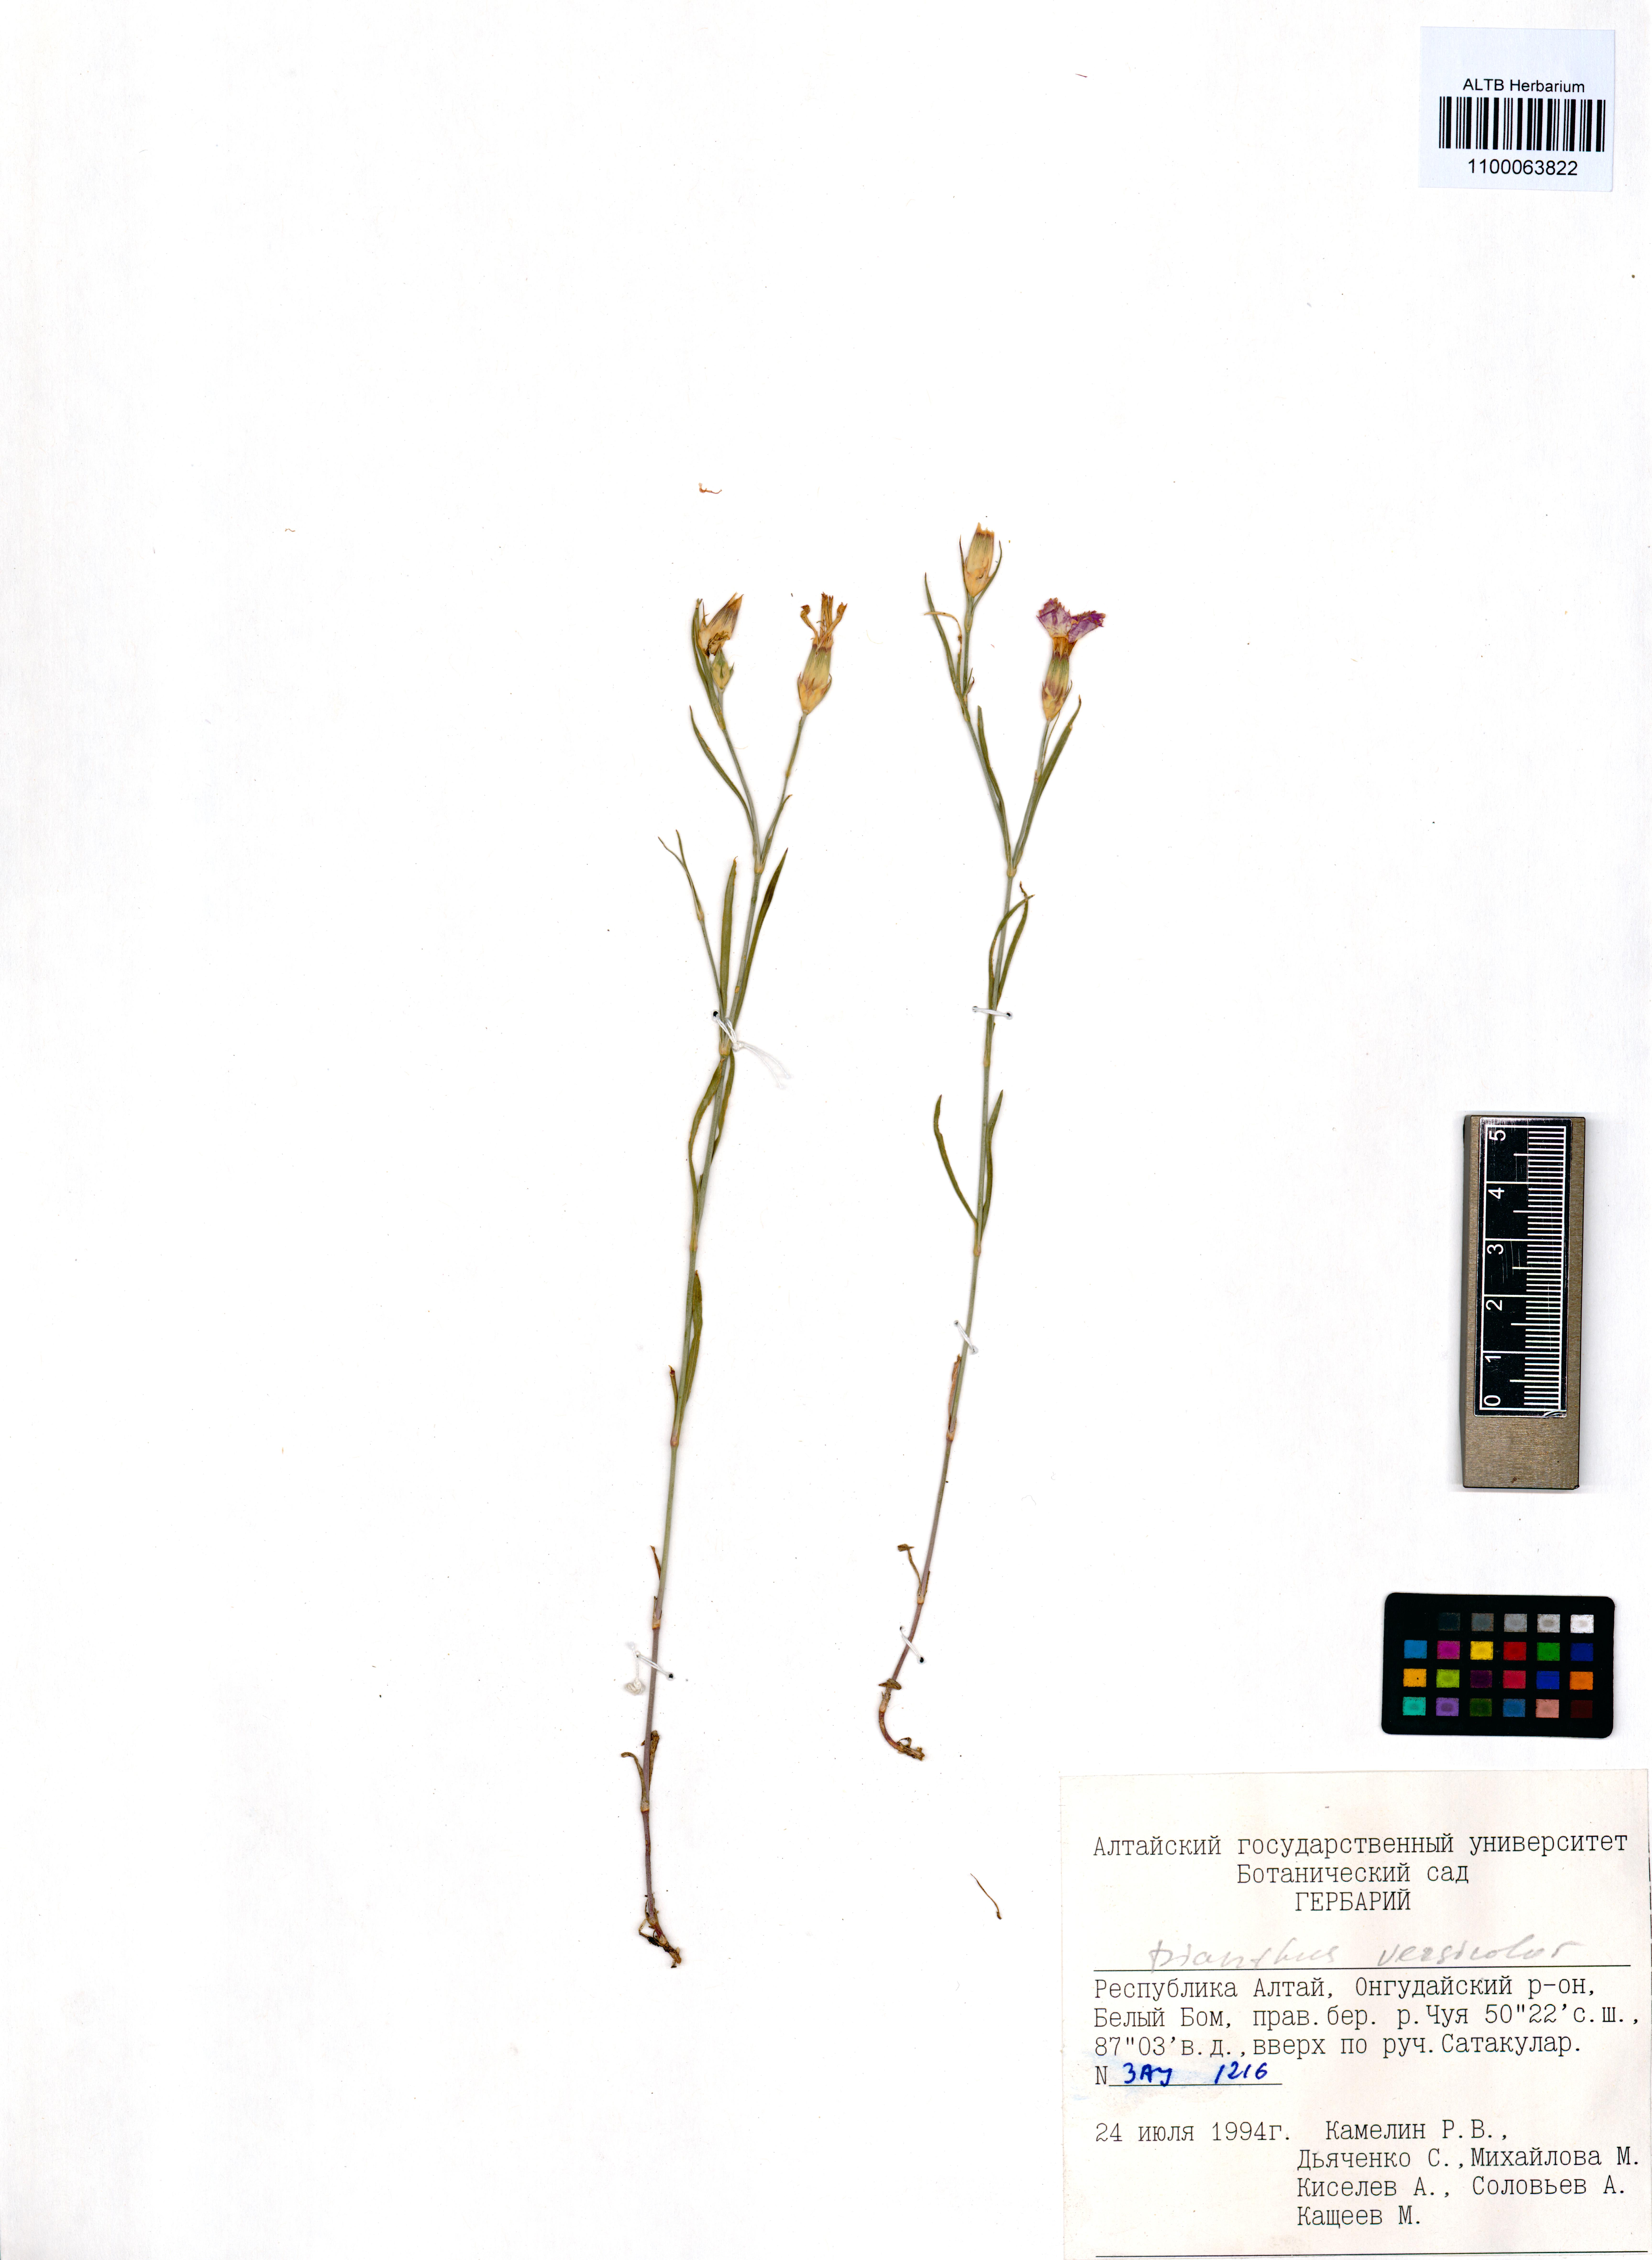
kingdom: Plantae
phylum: Tracheophyta
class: Magnoliopsida
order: Caryophyllales
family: Caryophyllaceae
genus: Dianthus
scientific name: Dianthus chinensis
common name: Rainbow pink
